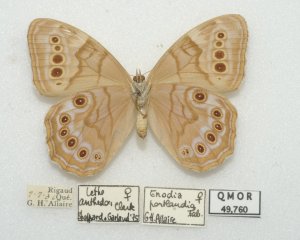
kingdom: Animalia
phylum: Arthropoda
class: Insecta
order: Lepidoptera
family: Nymphalidae
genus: Lethe
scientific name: Lethe anthedon
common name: Northern Pearly-Eye
